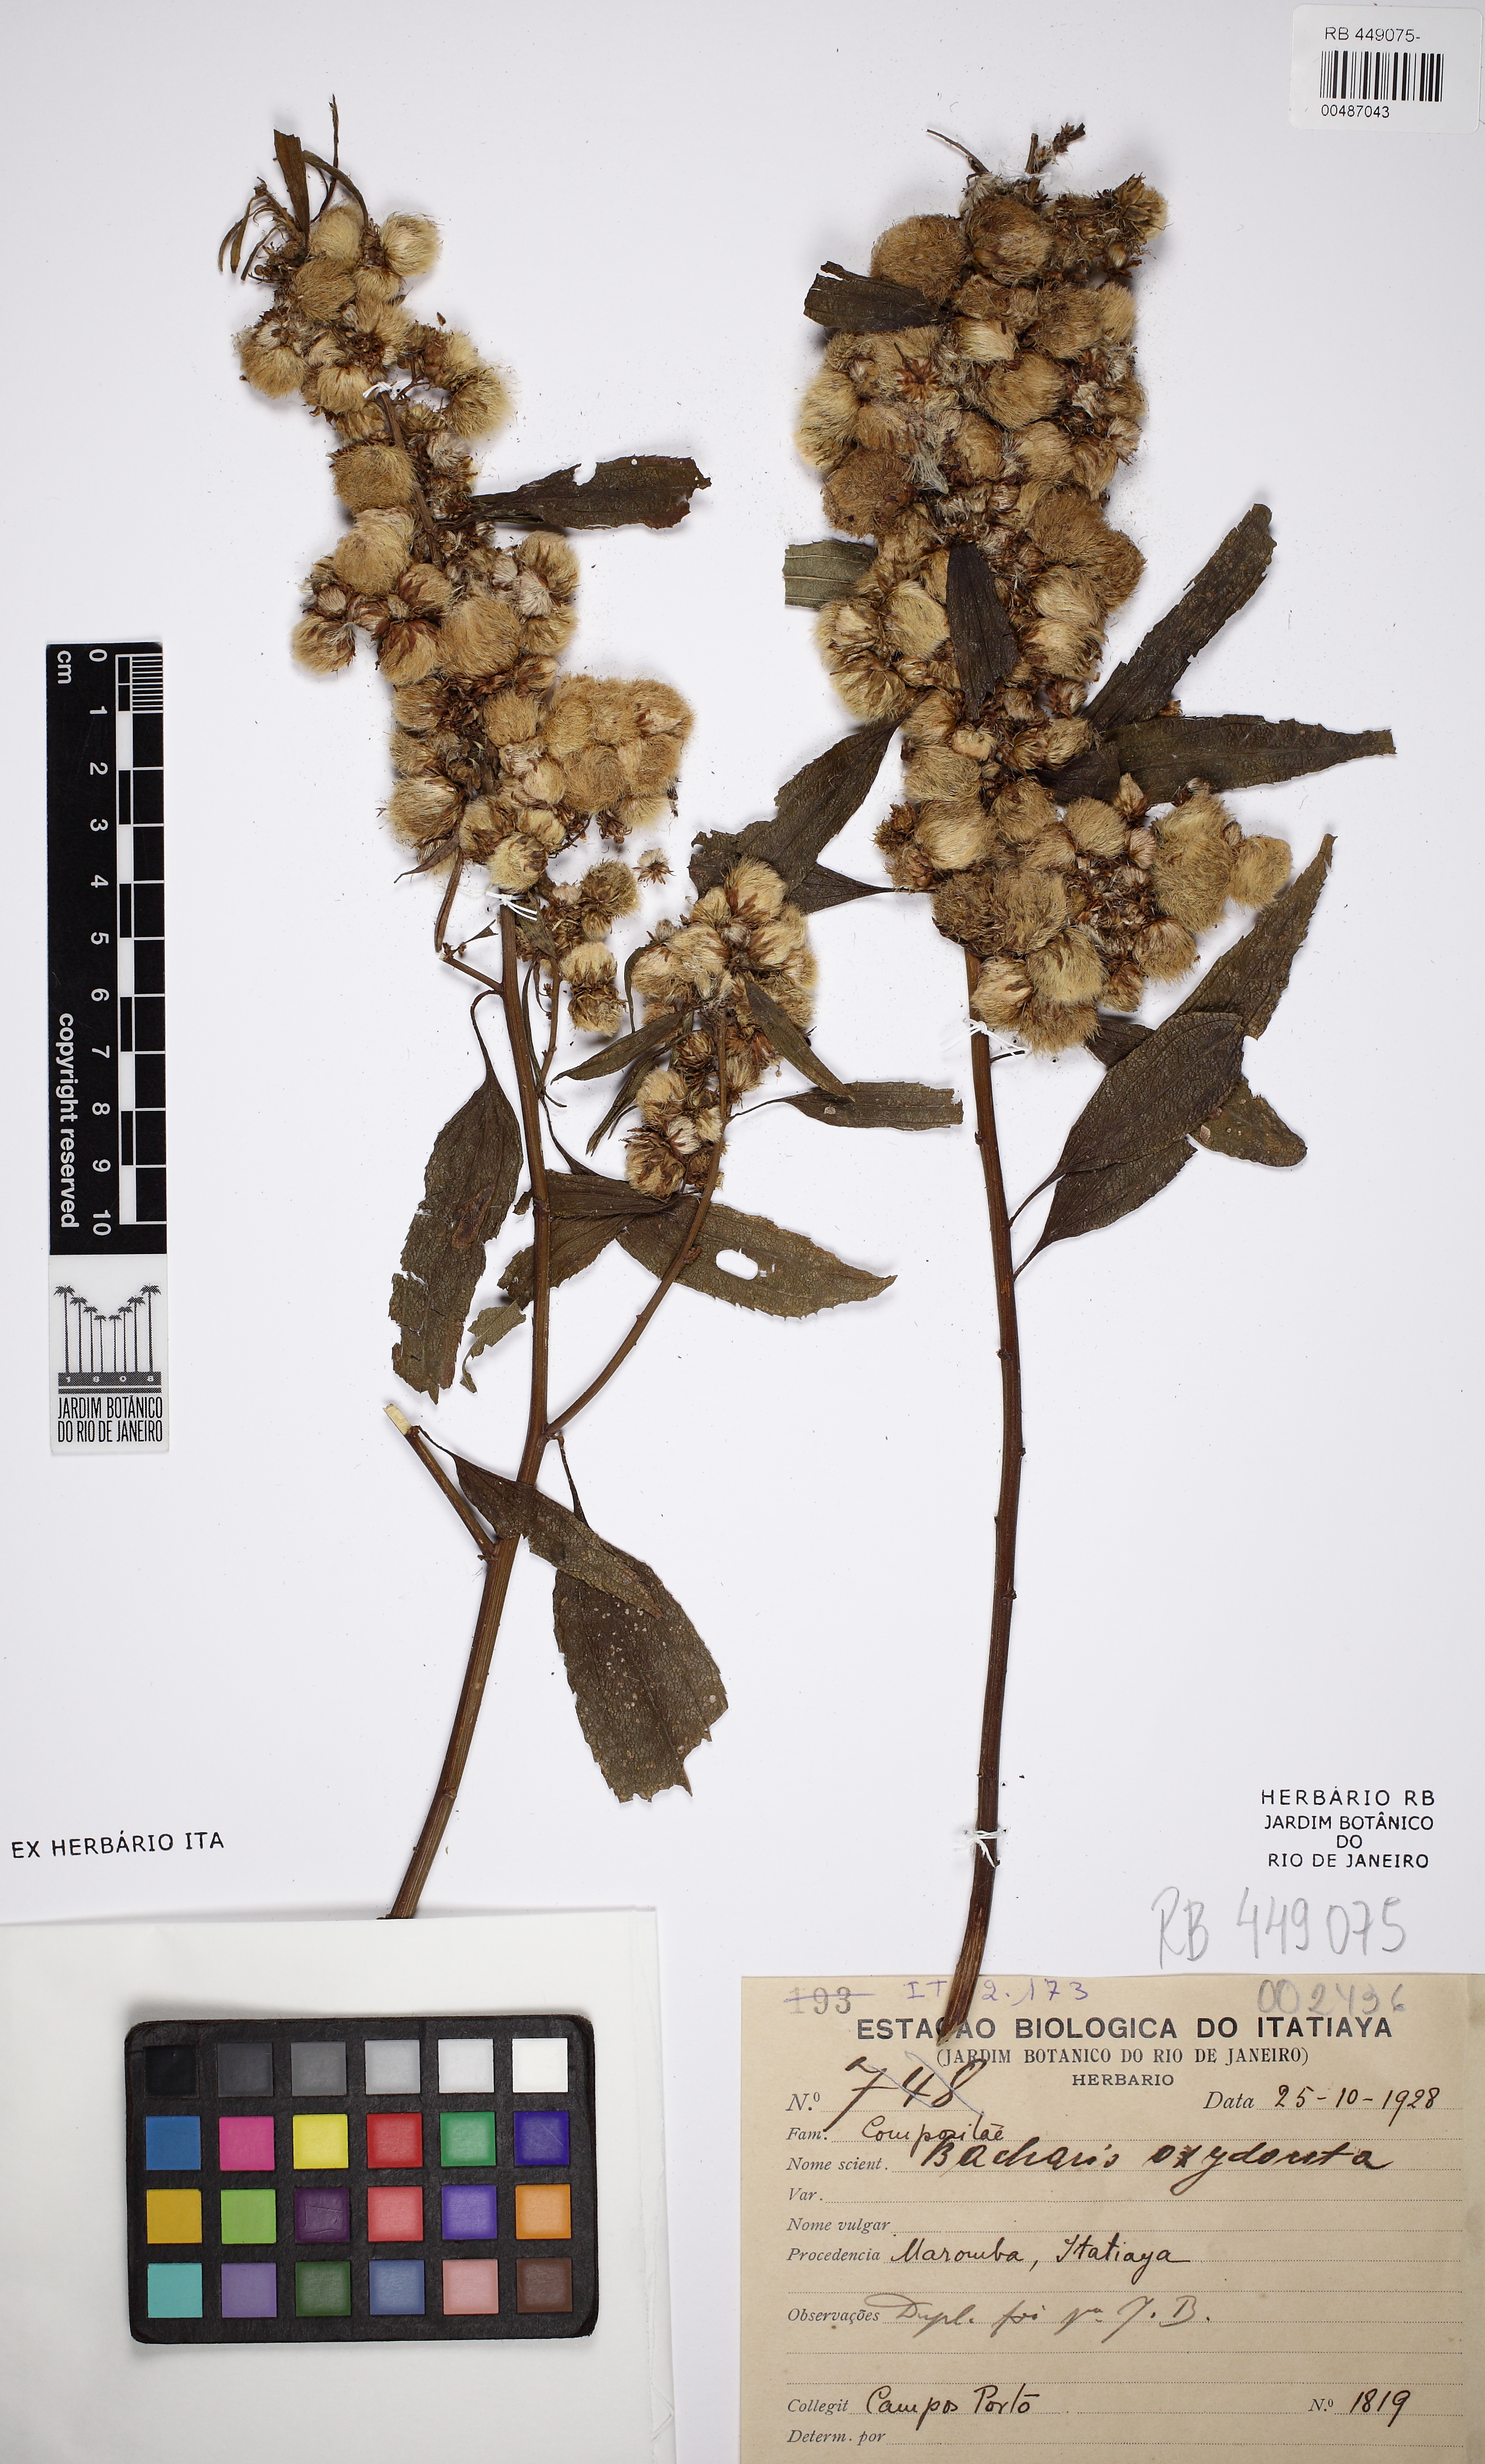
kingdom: Plantae
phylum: Tracheophyta
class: Magnoliopsida
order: Asterales
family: Asteraceae
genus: Baccharis
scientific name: Baccharis oxyodonta
